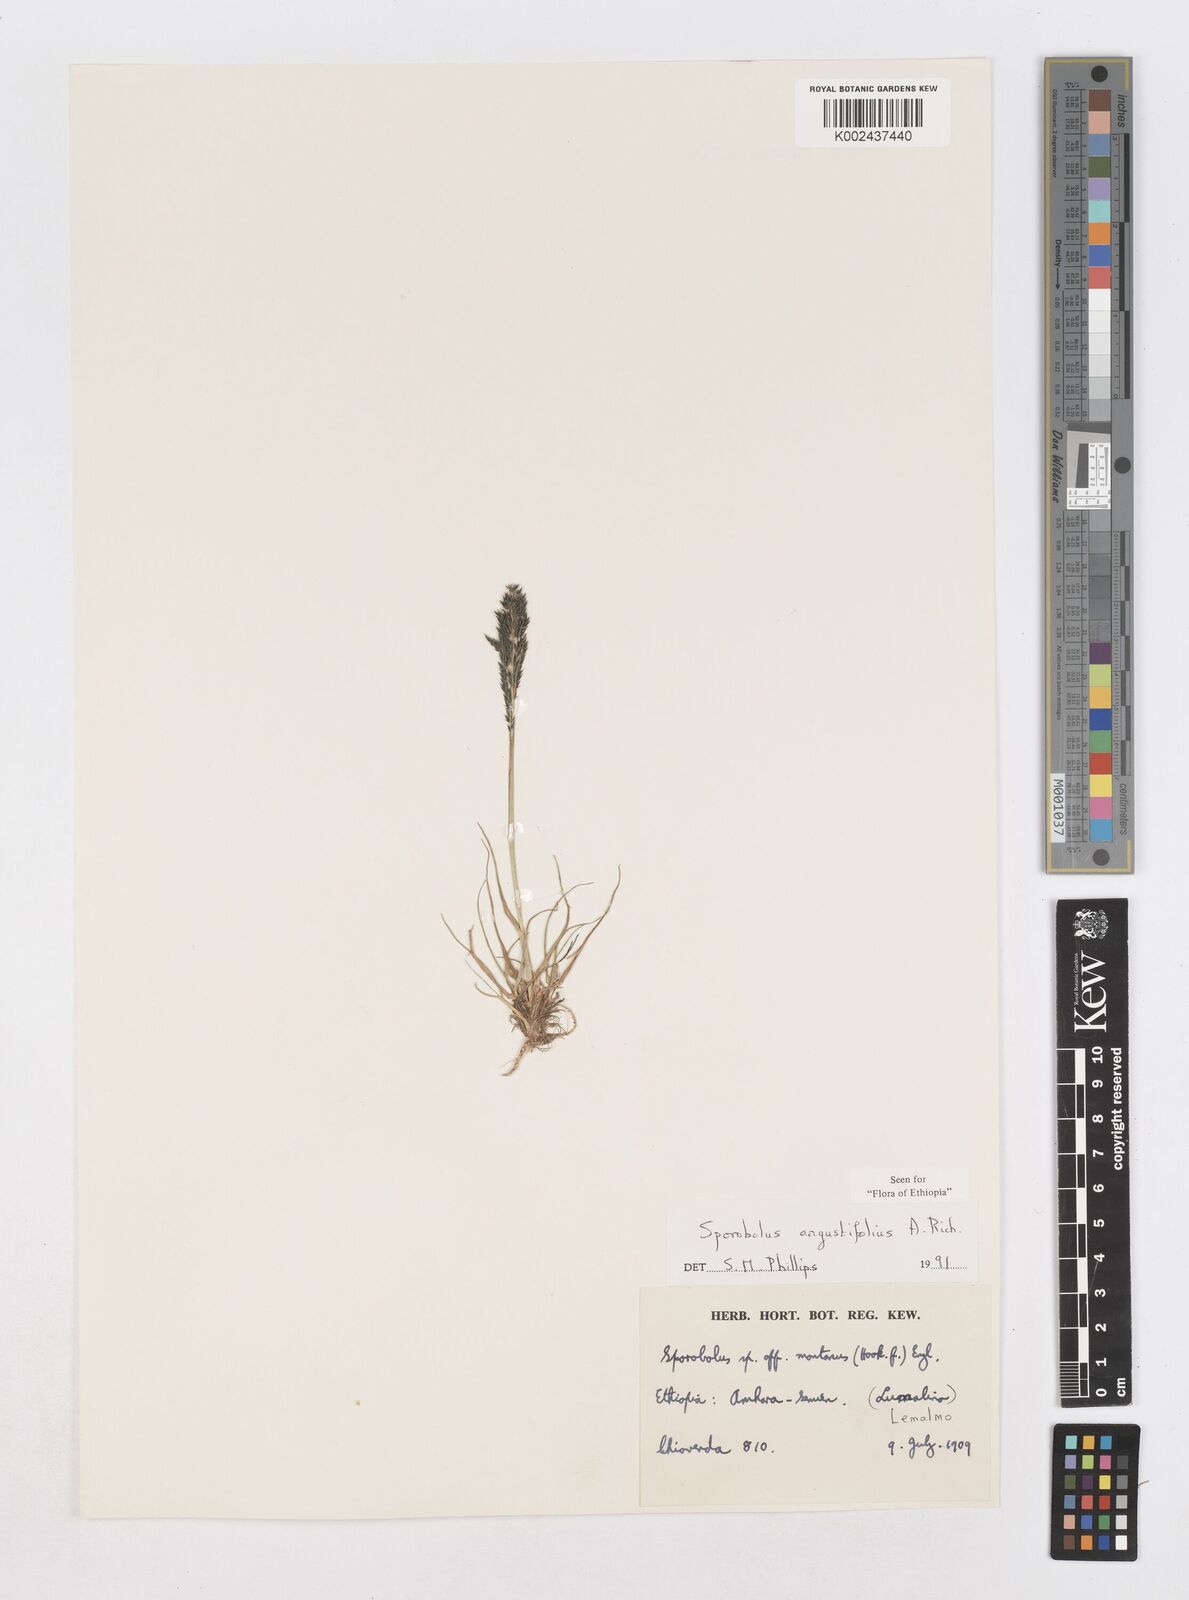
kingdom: Plantae
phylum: Tracheophyta
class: Liliopsida
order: Poales
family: Poaceae
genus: Sporobolus
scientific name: Sporobolus angustifolius
